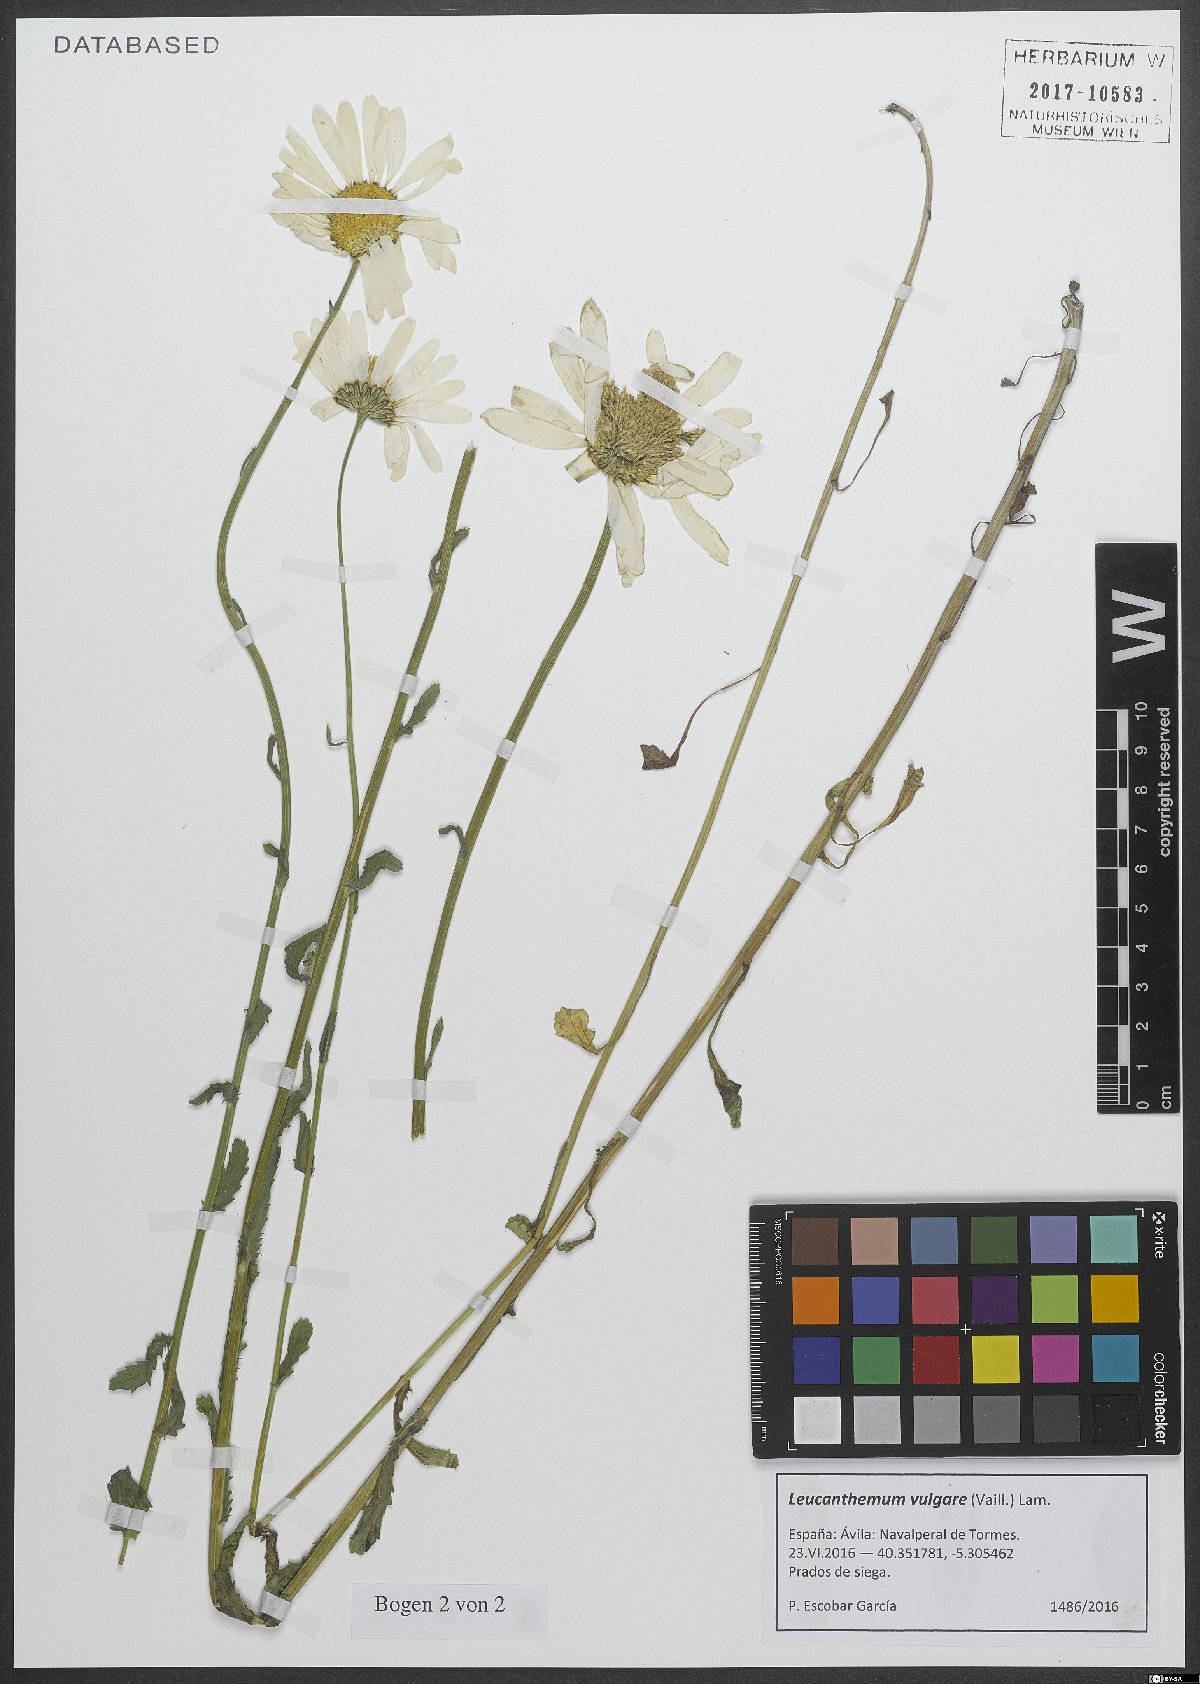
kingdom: Plantae
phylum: Tracheophyta
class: Magnoliopsida
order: Asterales
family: Asteraceae
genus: Leucanthemum
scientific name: Leucanthemum vulgare
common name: Oxeye daisy
